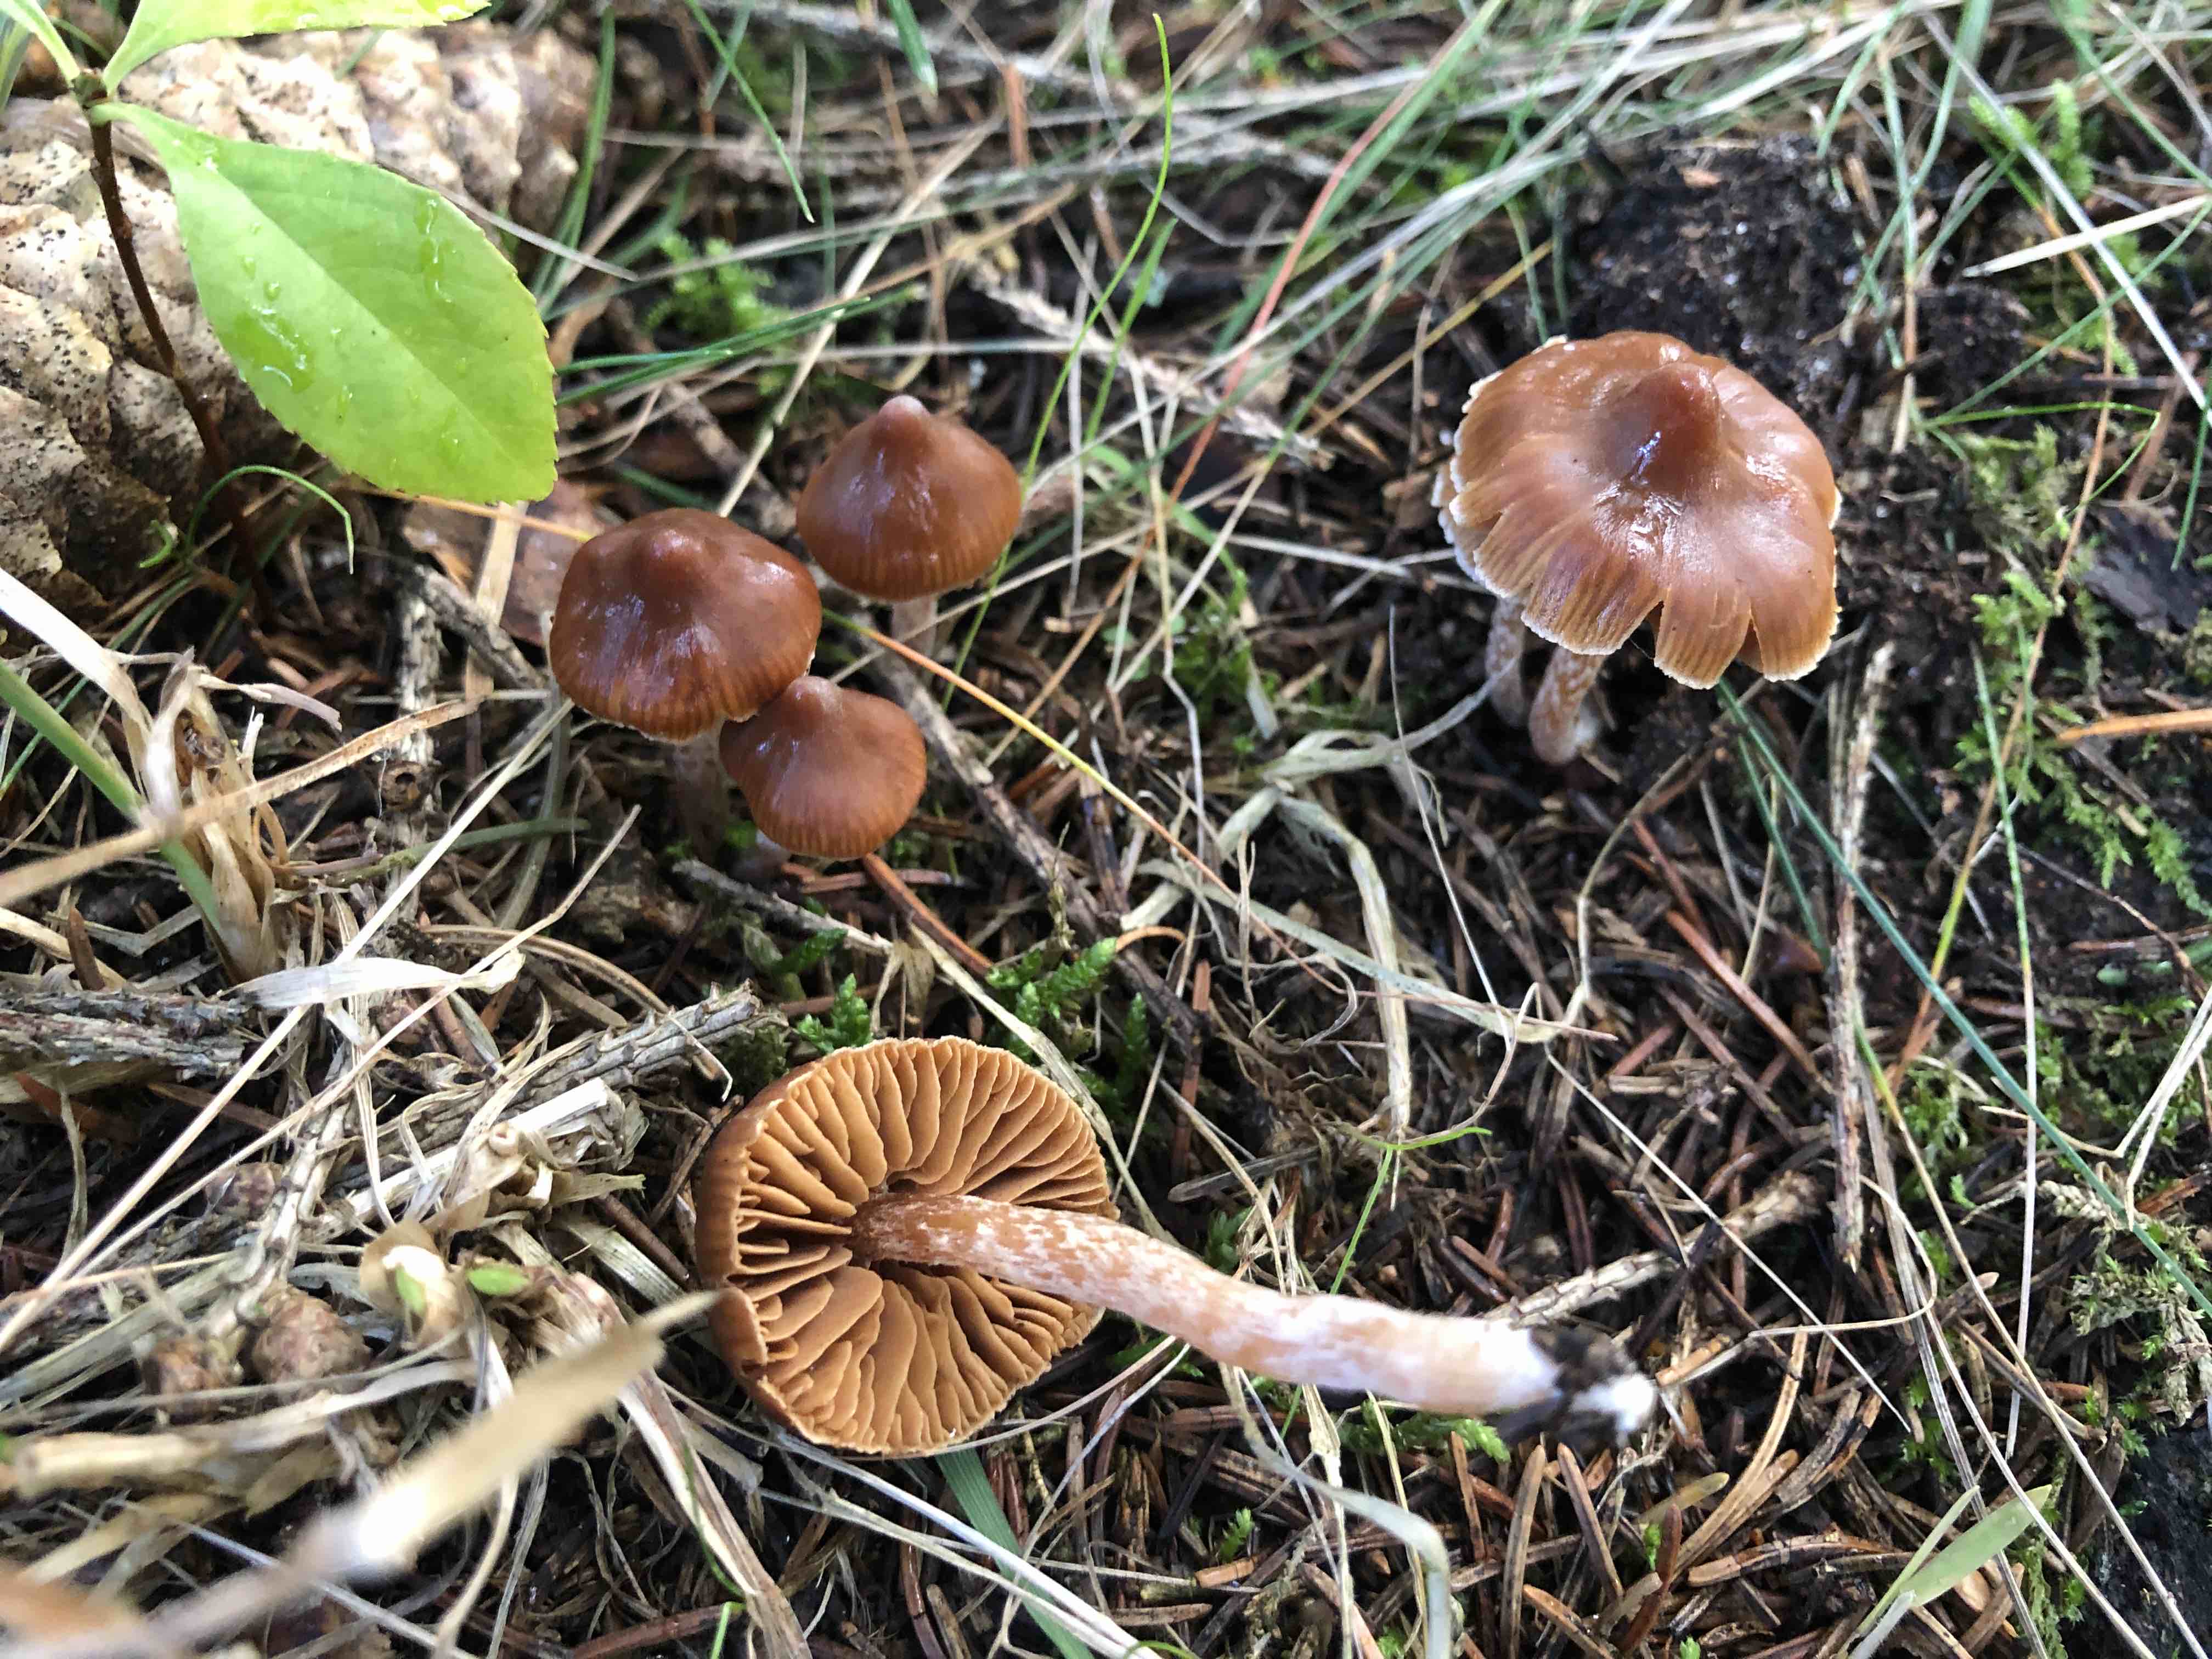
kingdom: Fungi
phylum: Basidiomycota
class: Agaricomycetes
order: Agaricales
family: Cortinariaceae
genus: Cortinarius
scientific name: Cortinarius
